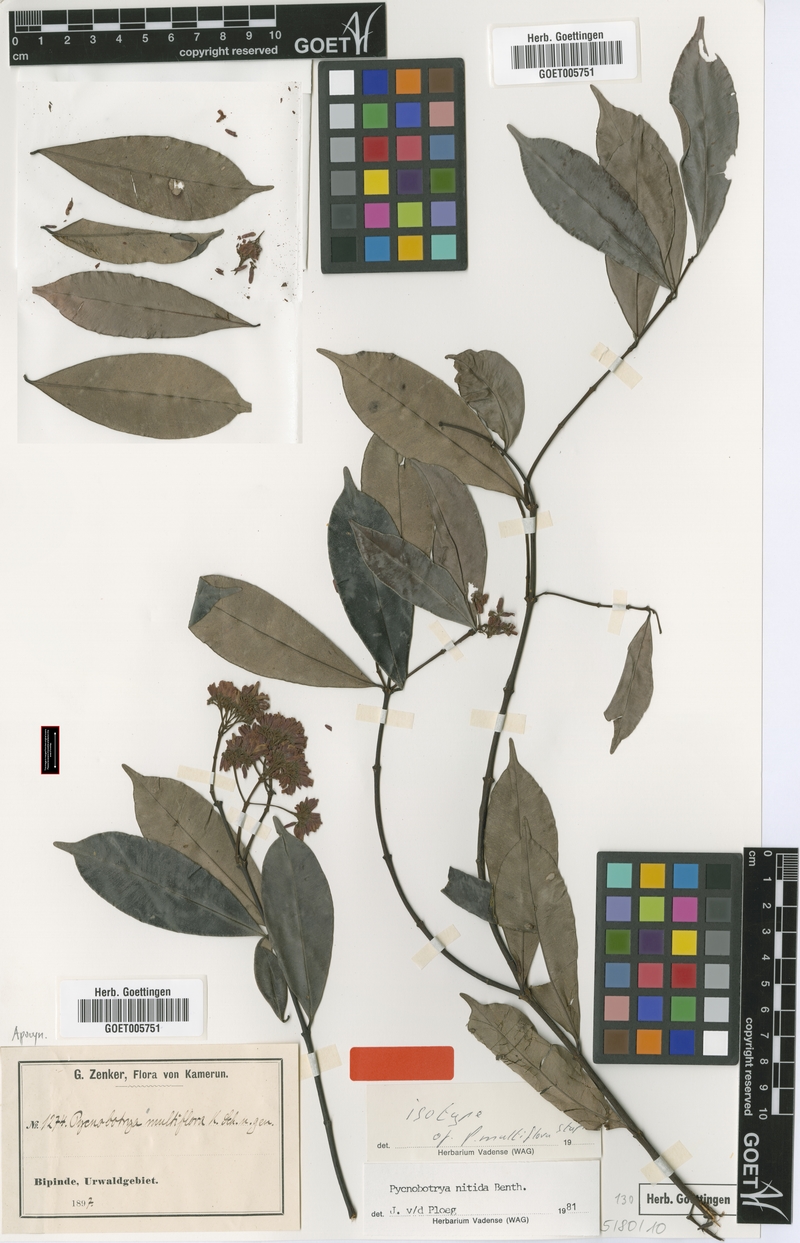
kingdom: Plantae
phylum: Tracheophyta
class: Magnoliopsida
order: Gentianales
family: Apocynaceae
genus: Pycnobotrya
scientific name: Pycnobotrya nitida
